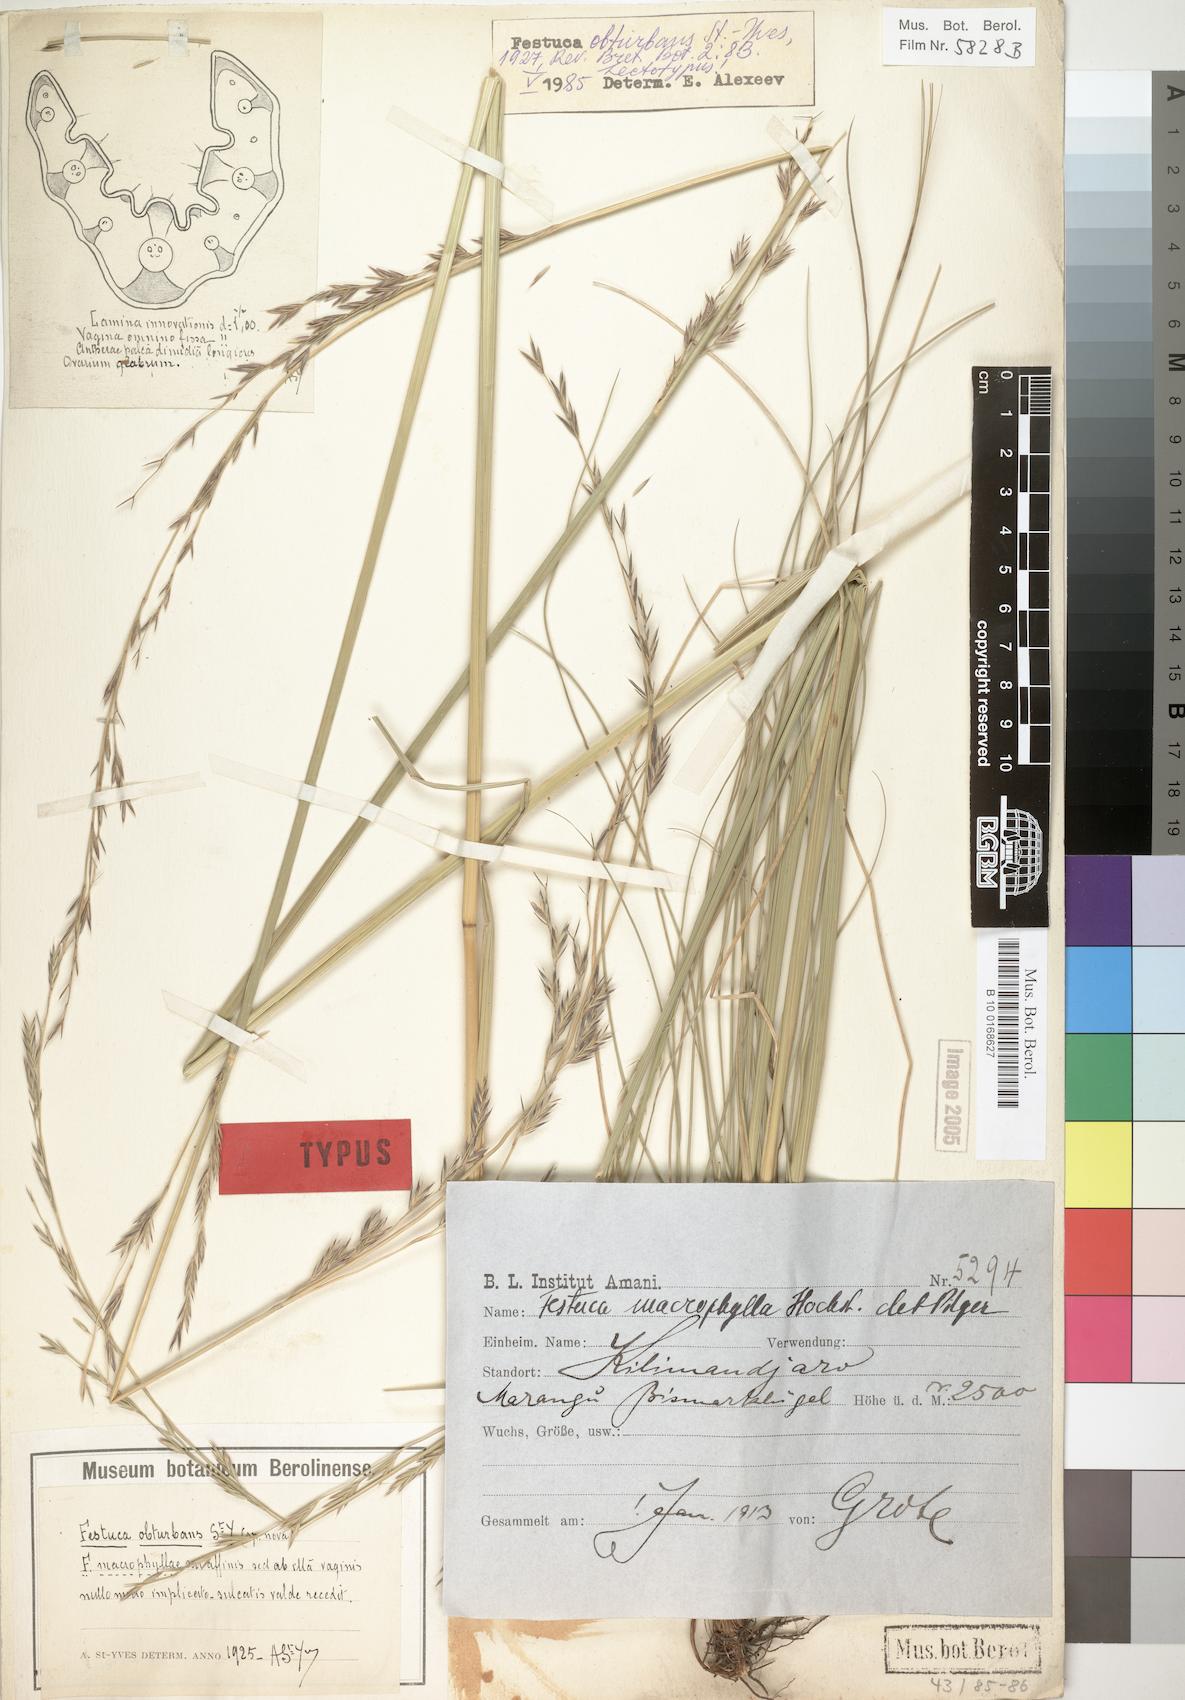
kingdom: Plantae
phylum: Tracheophyta
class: Liliopsida
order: Poales
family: Poaceae
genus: Festuca
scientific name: Festuca obturbans
